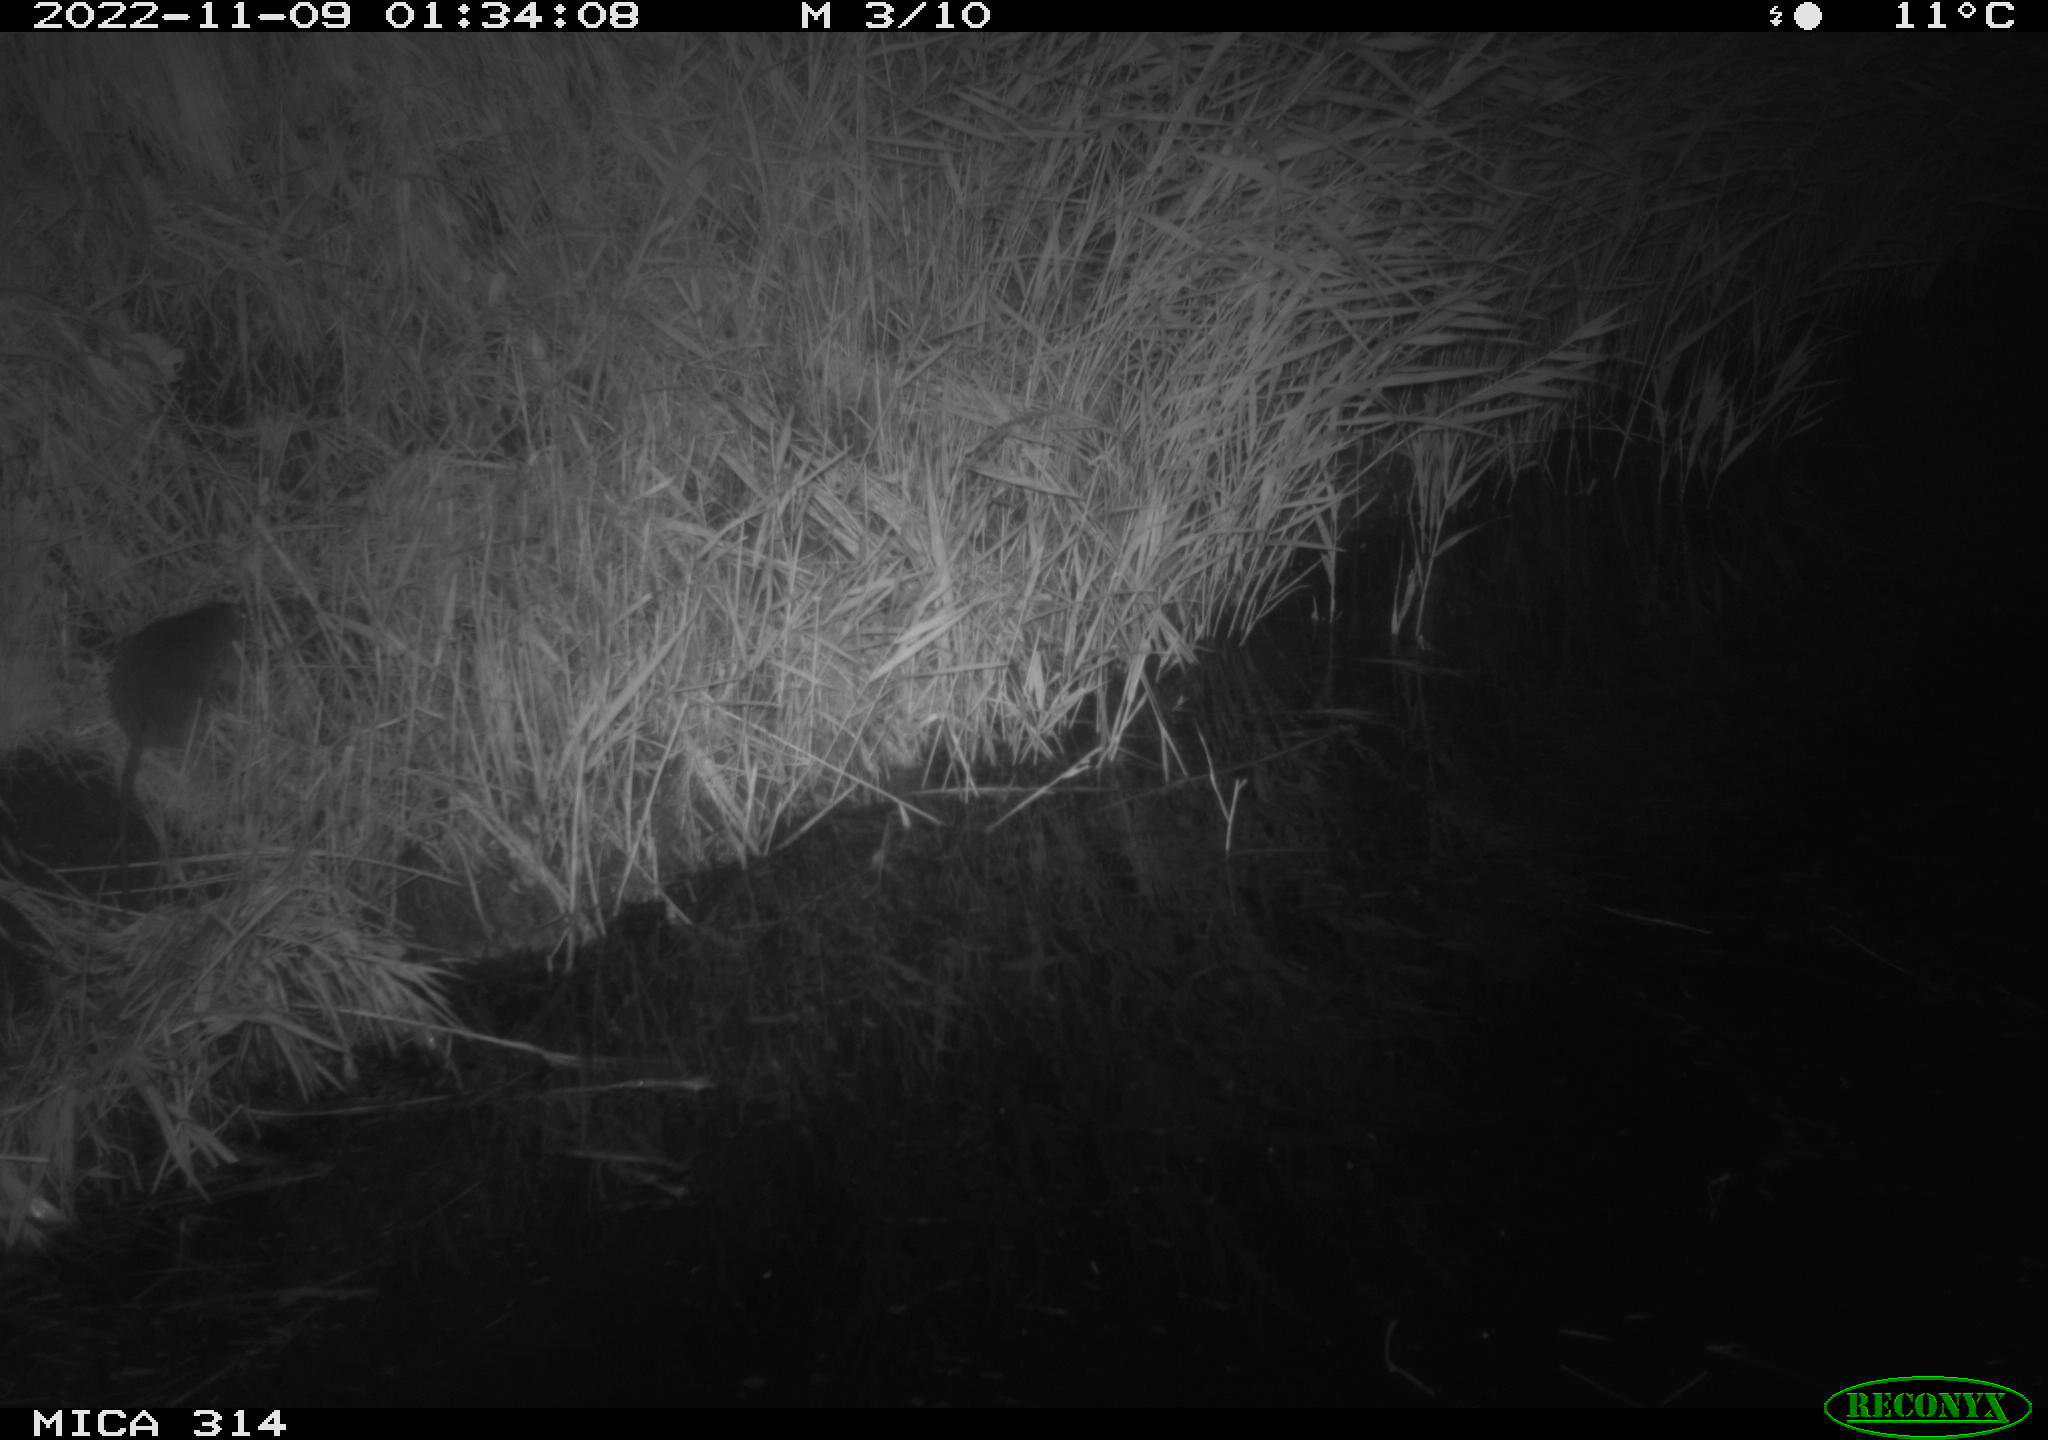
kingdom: Animalia
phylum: Chordata
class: Mammalia
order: Rodentia
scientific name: Rodentia
